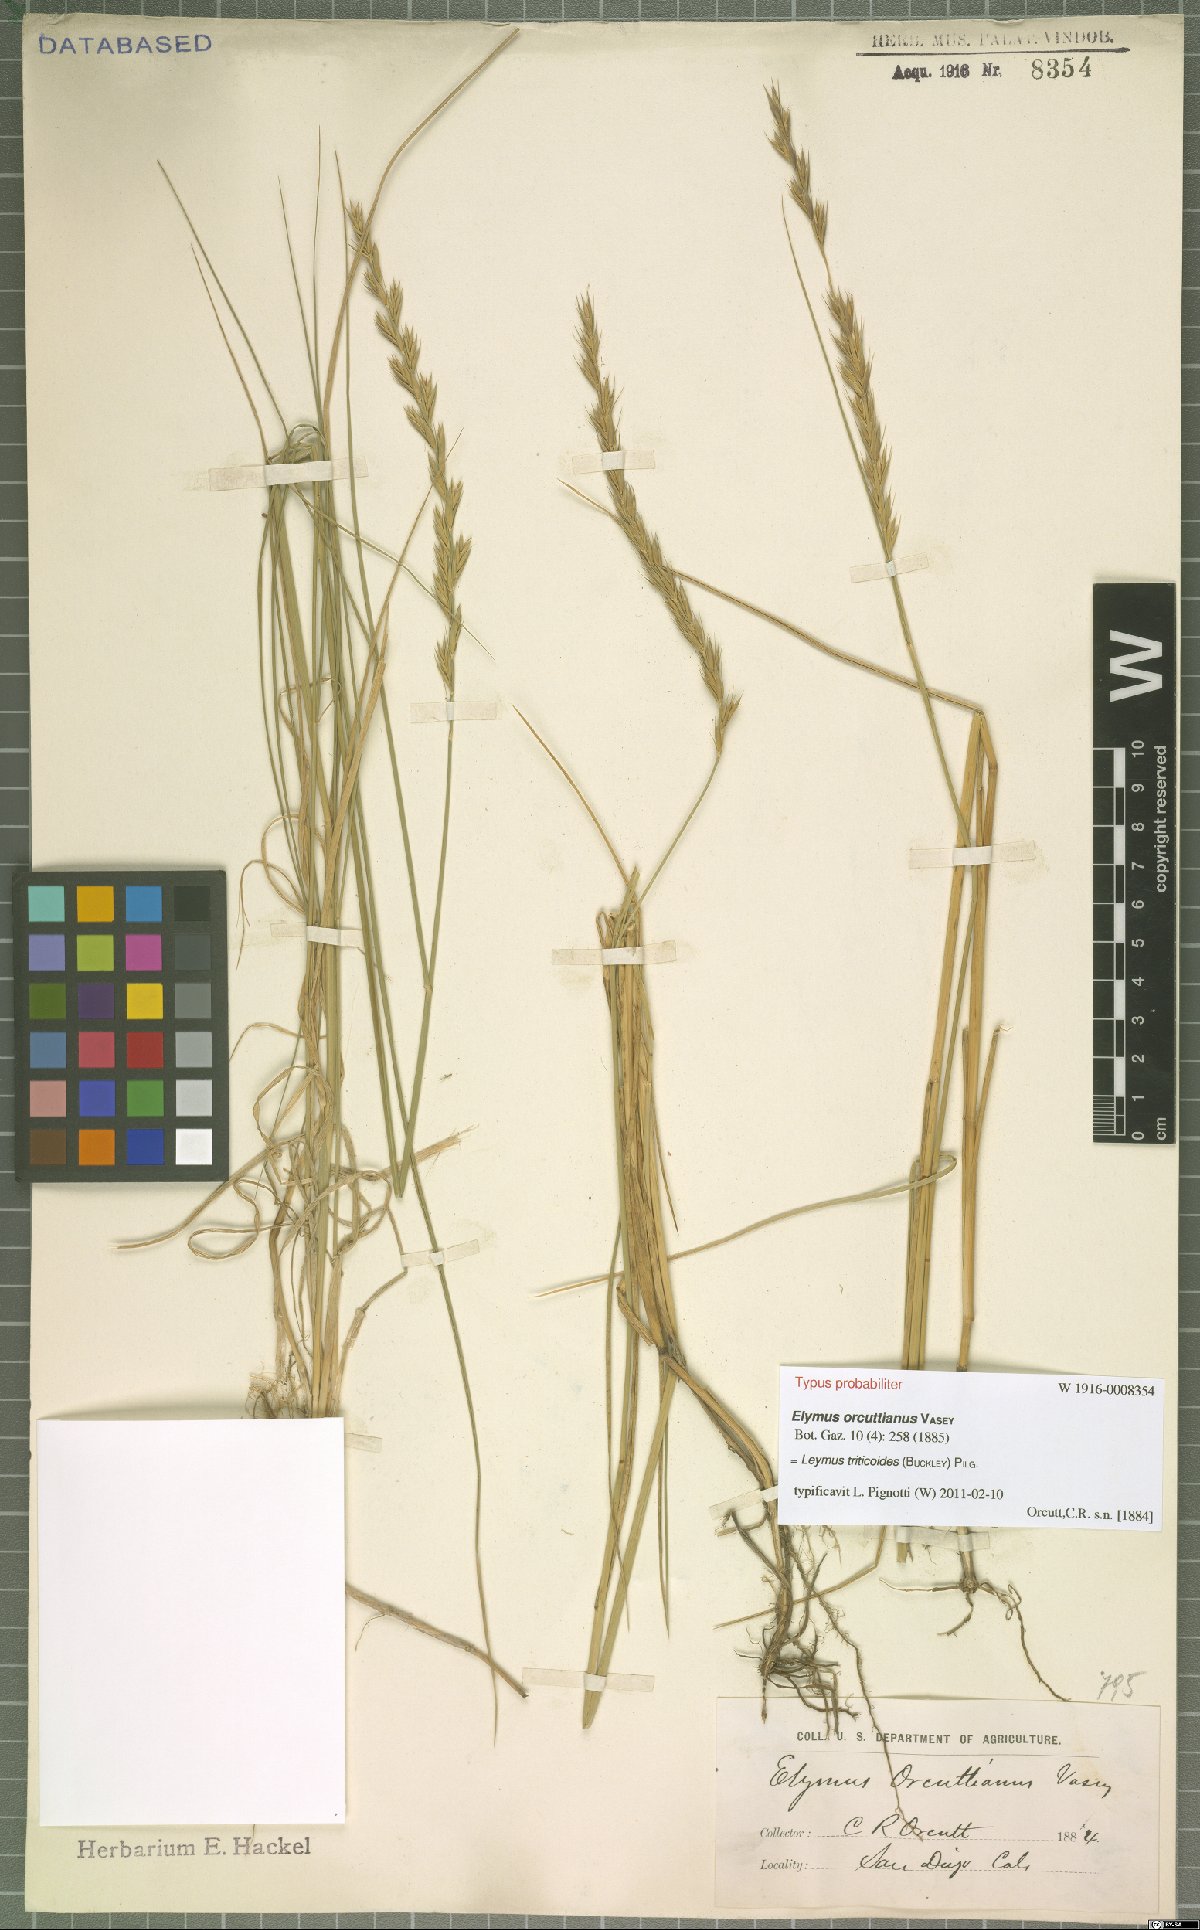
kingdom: Plantae
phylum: Tracheophyta
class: Liliopsida
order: Poales
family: Poaceae
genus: Leymus
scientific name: Leymus triticoides
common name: Beardless wild rye
